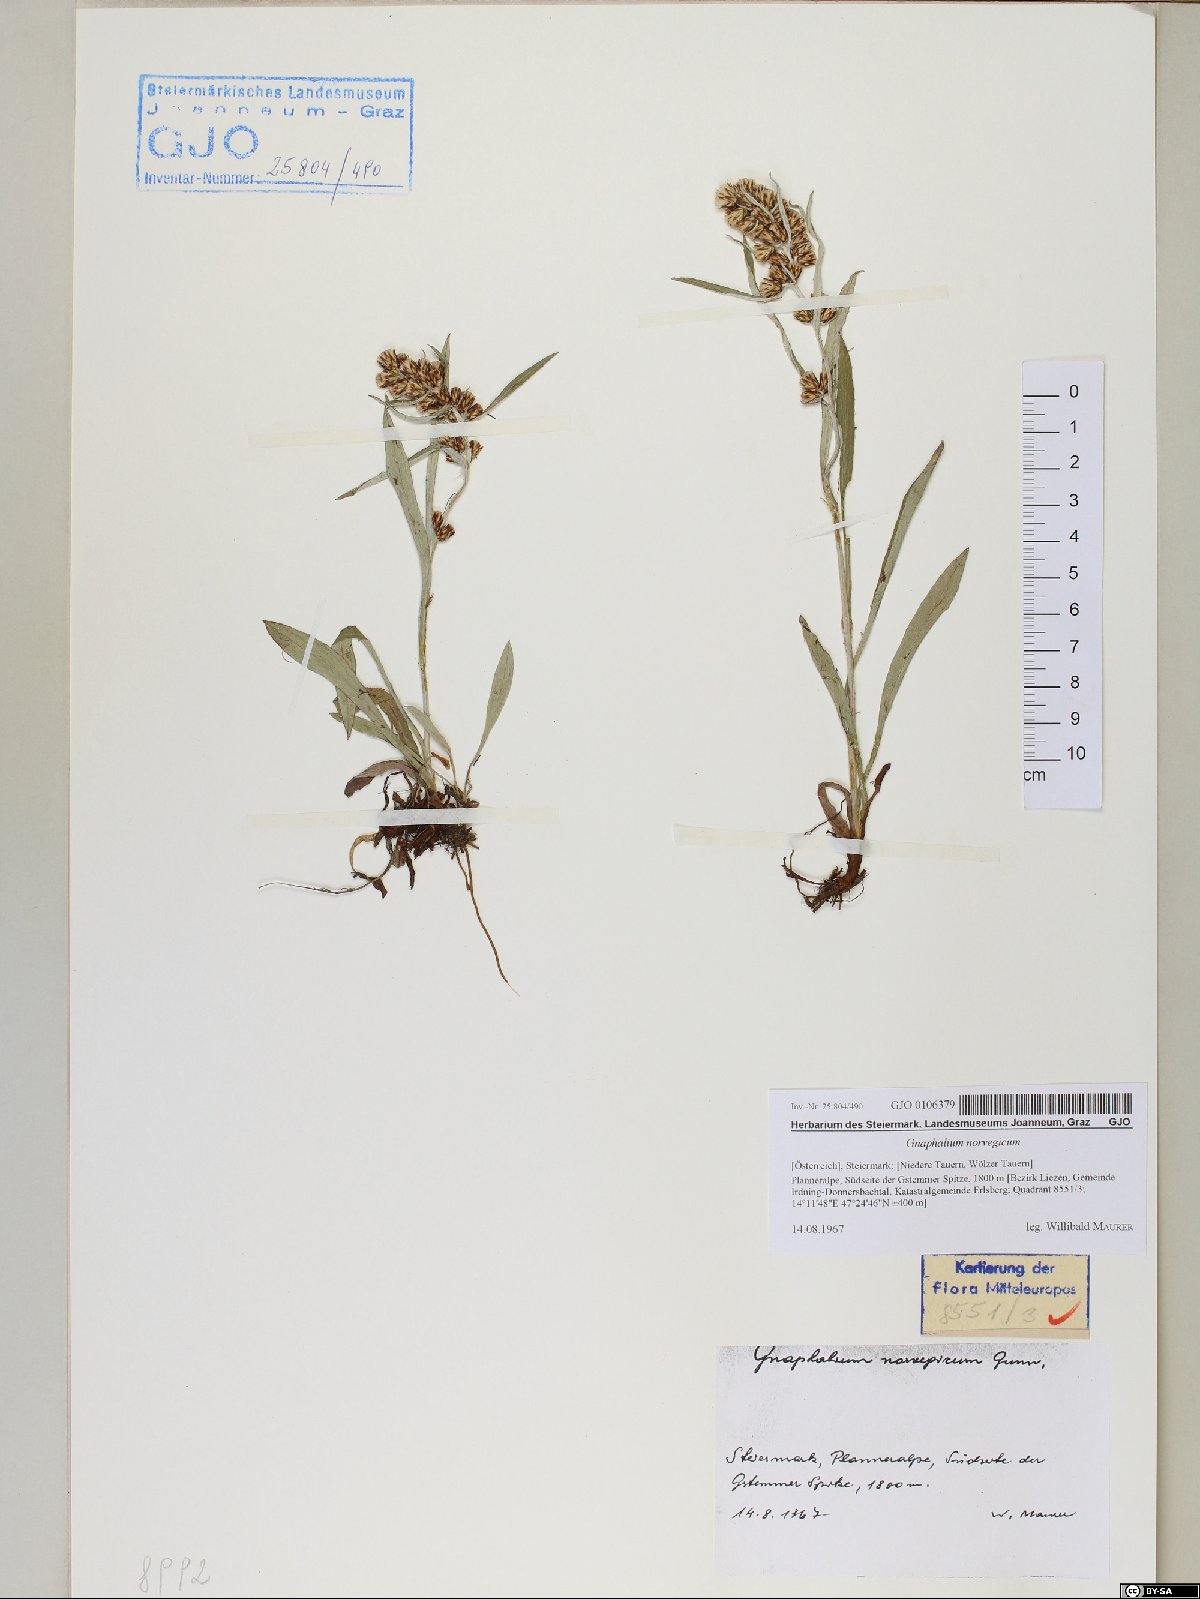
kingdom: Plantae
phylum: Tracheophyta
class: Magnoliopsida
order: Asterales
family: Asteraceae
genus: Omalotheca
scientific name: Omalotheca norvegica
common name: Norwegian arctic-cudweed
